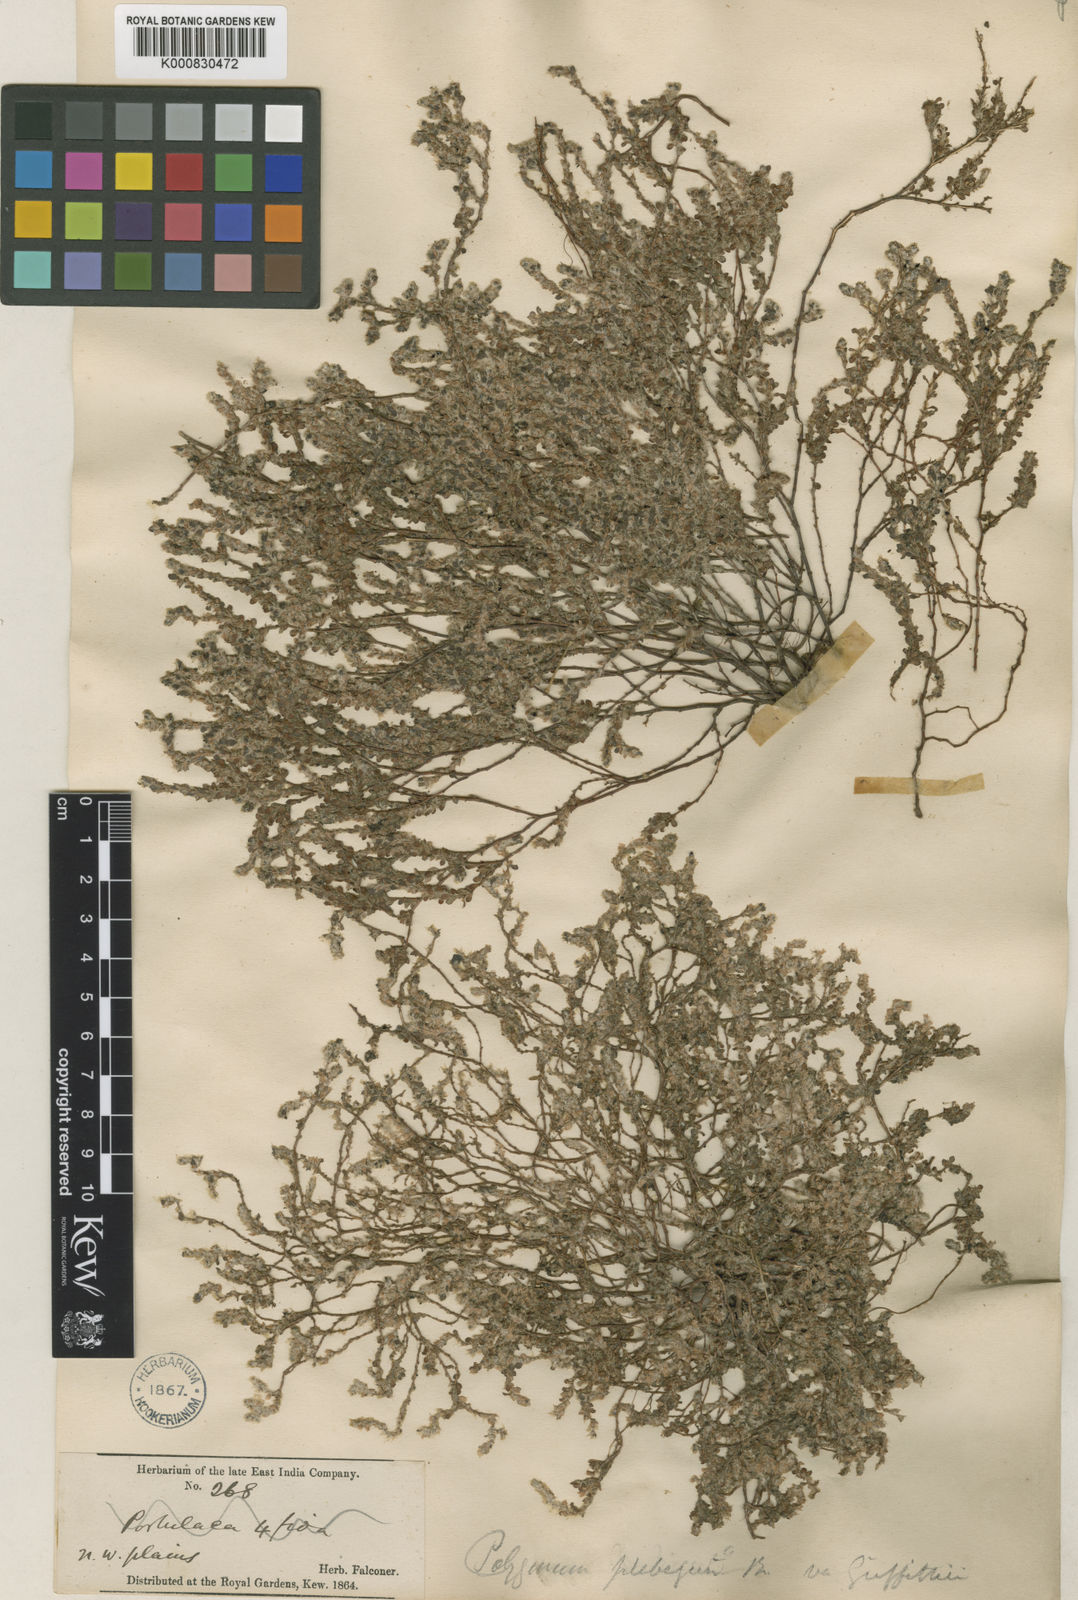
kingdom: Plantae
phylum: Tracheophyta
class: Magnoliopsida
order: Caryophyllales
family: Polygonaceae
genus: Polygonum
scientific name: Polygonum plebeium
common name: Common knotweed
